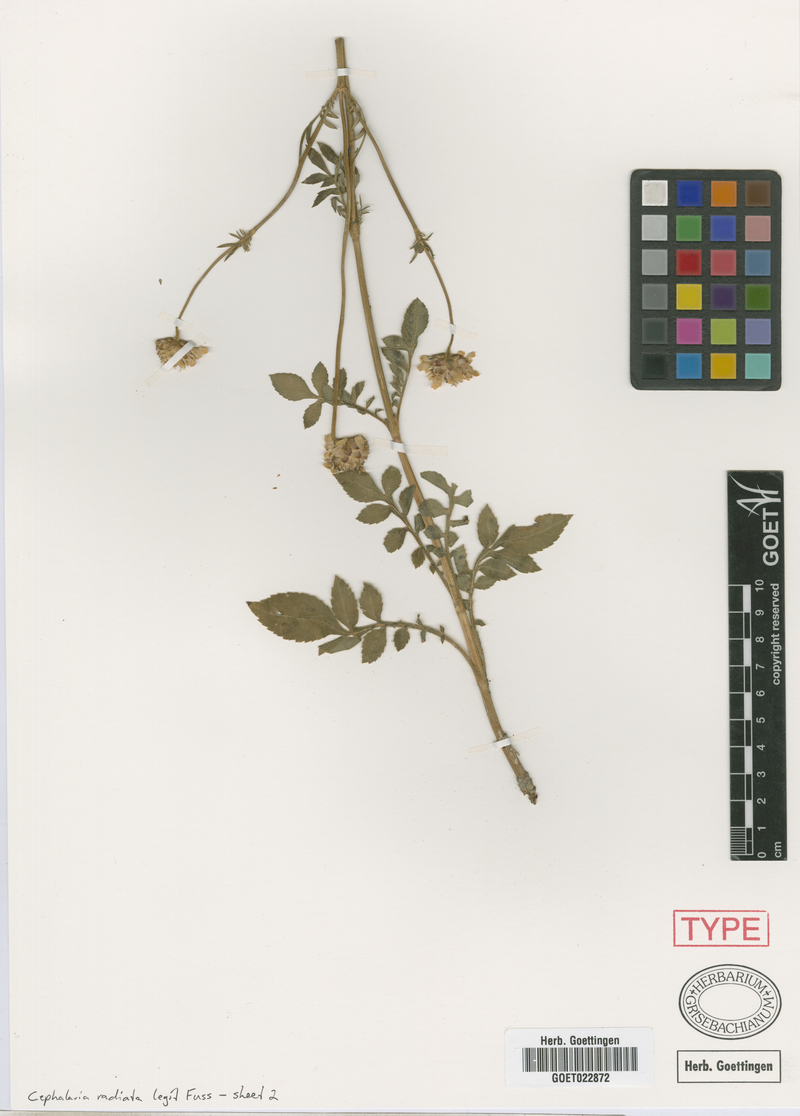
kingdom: Plantae
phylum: Tracheophyta
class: Magnoliopsida
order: Dipsacales
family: Caprifoliaceae
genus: Cephalaria
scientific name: Cephalaria radiata
